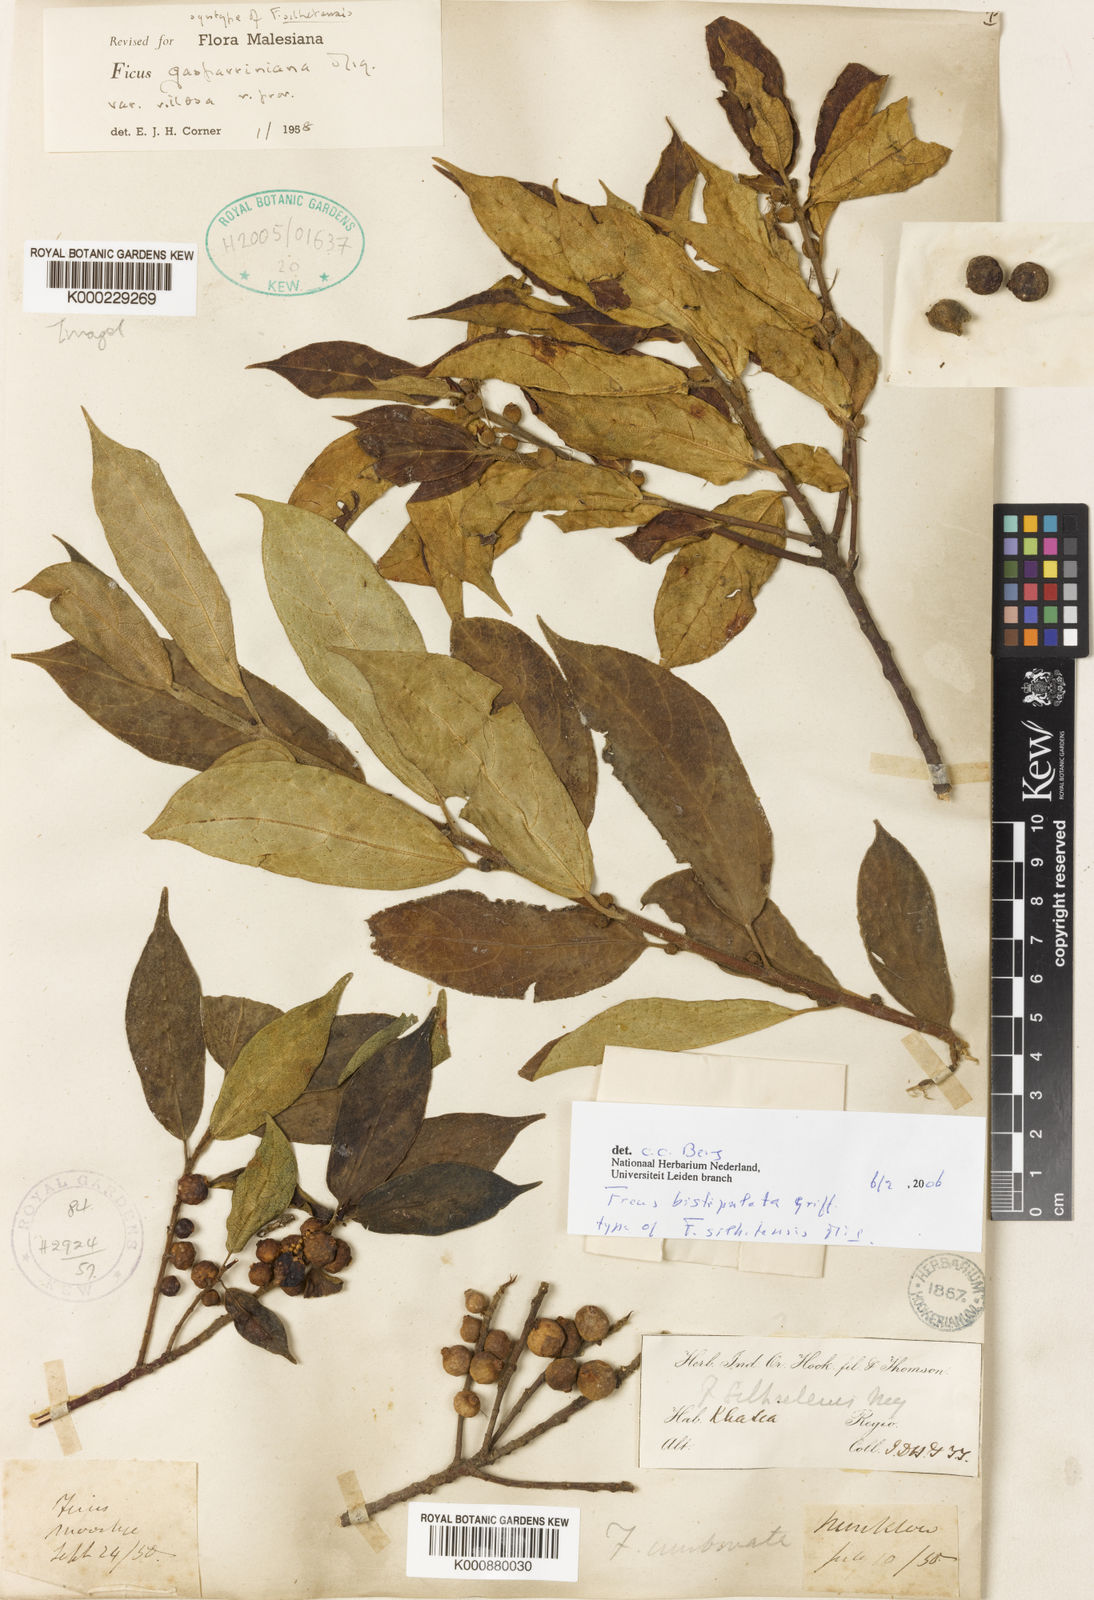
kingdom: Plantae
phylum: Tracheophyta
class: Magnoliopsida
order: Rosales
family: Moraceae
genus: Ficus
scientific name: Ficus glaberrima
